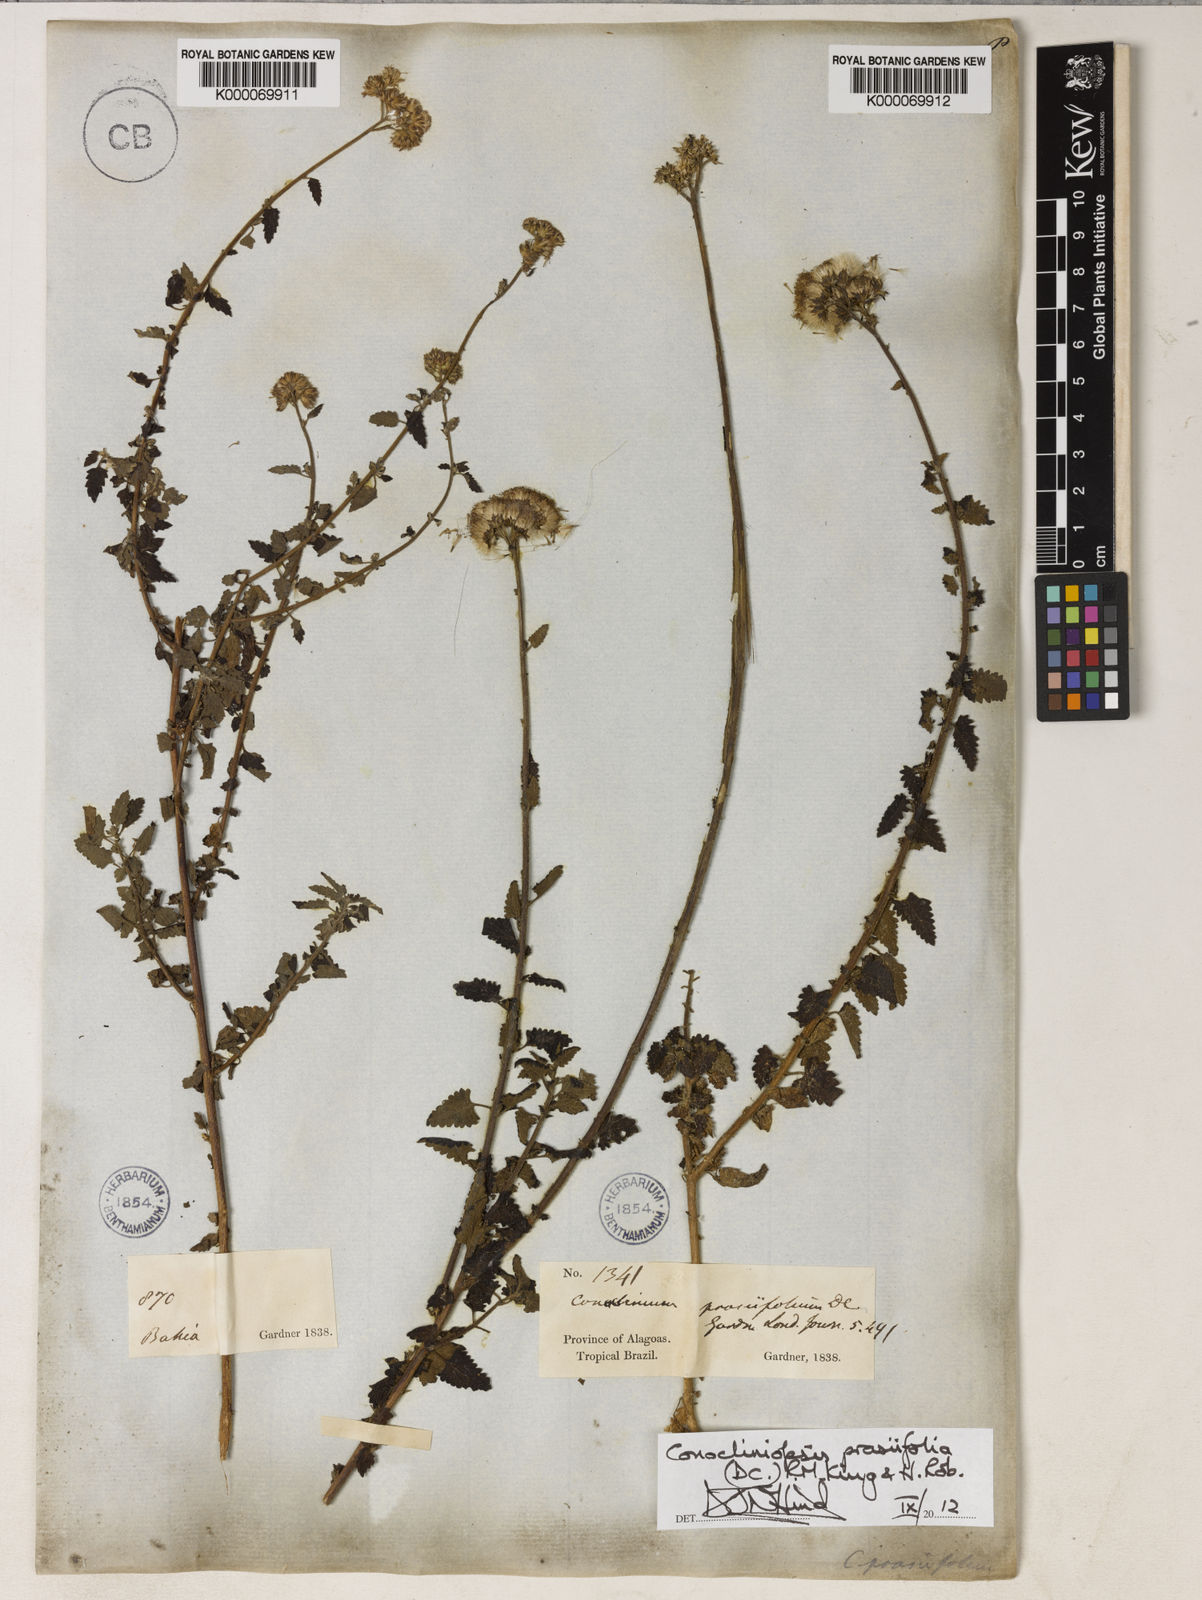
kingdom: Plantae
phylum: Tracheophyta
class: Magnoliopsida
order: Asterales
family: Asteraceae
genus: Conocliniopsis
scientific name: Conocliniopsis grossedentata
